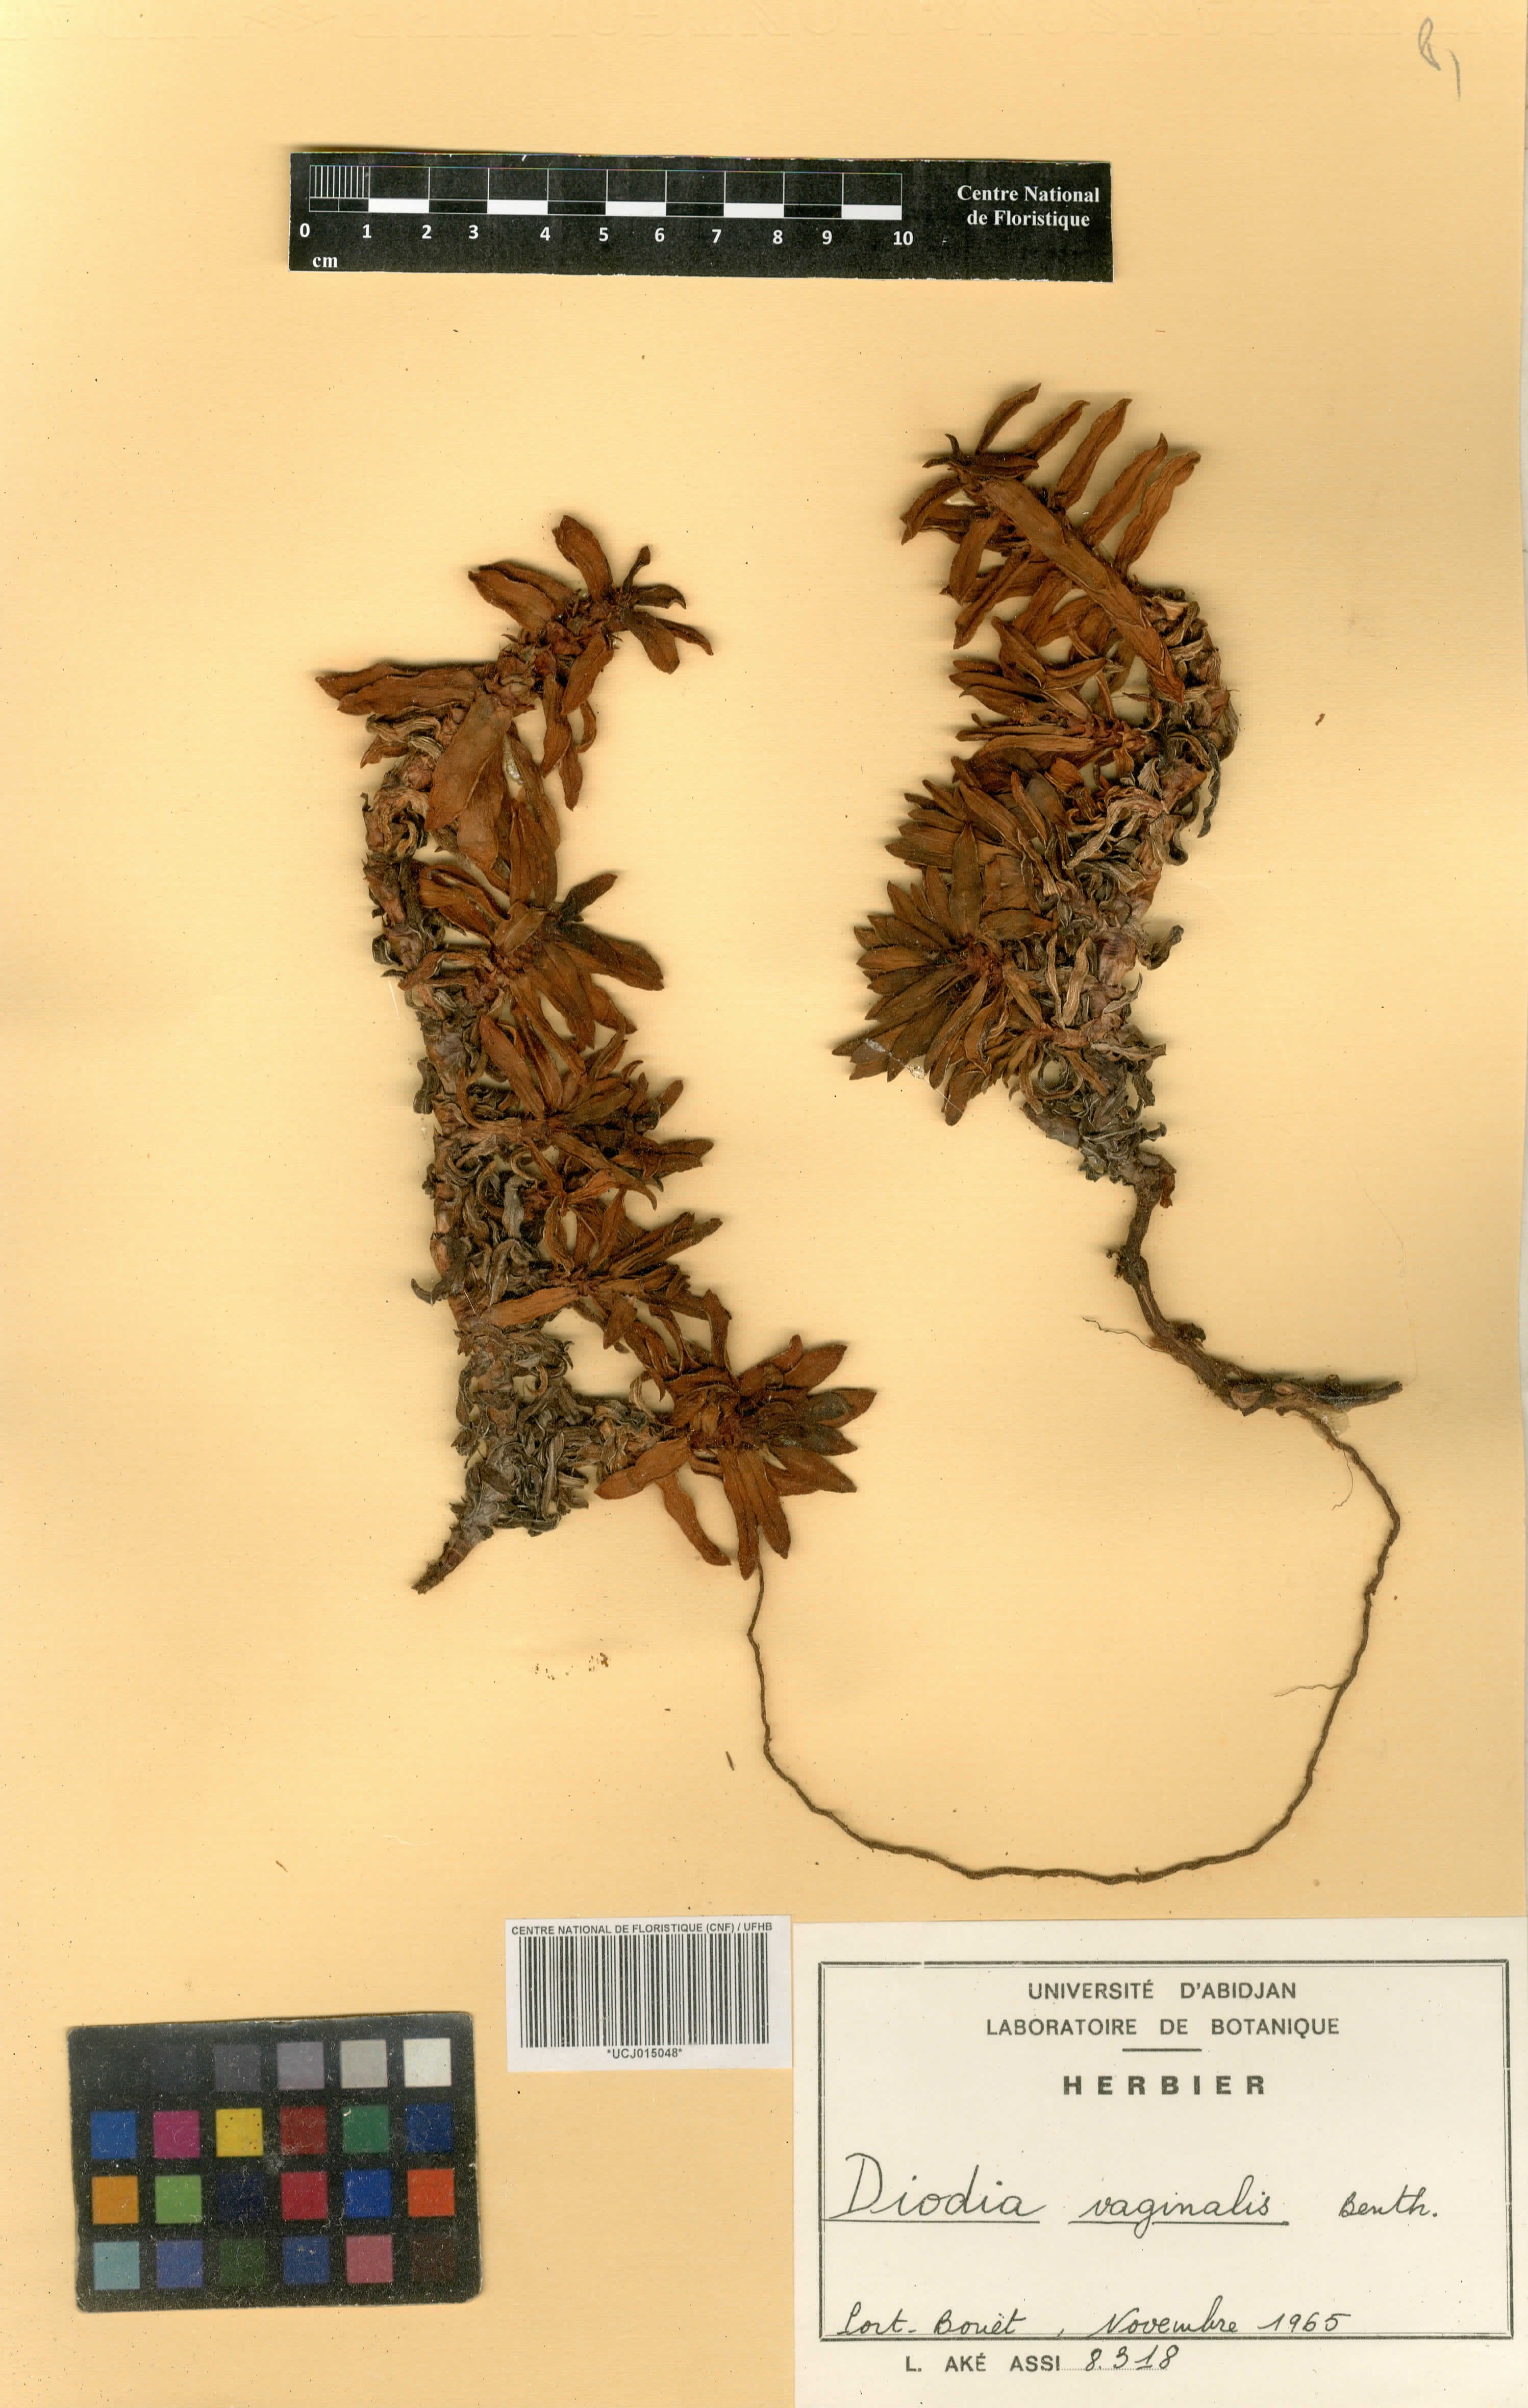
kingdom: Plantae
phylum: Tracheophyta
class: Magnoliopsida
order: Gentianales
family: Rubiaceae
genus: Hexasepalum
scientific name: Hexasepalum vaginale
